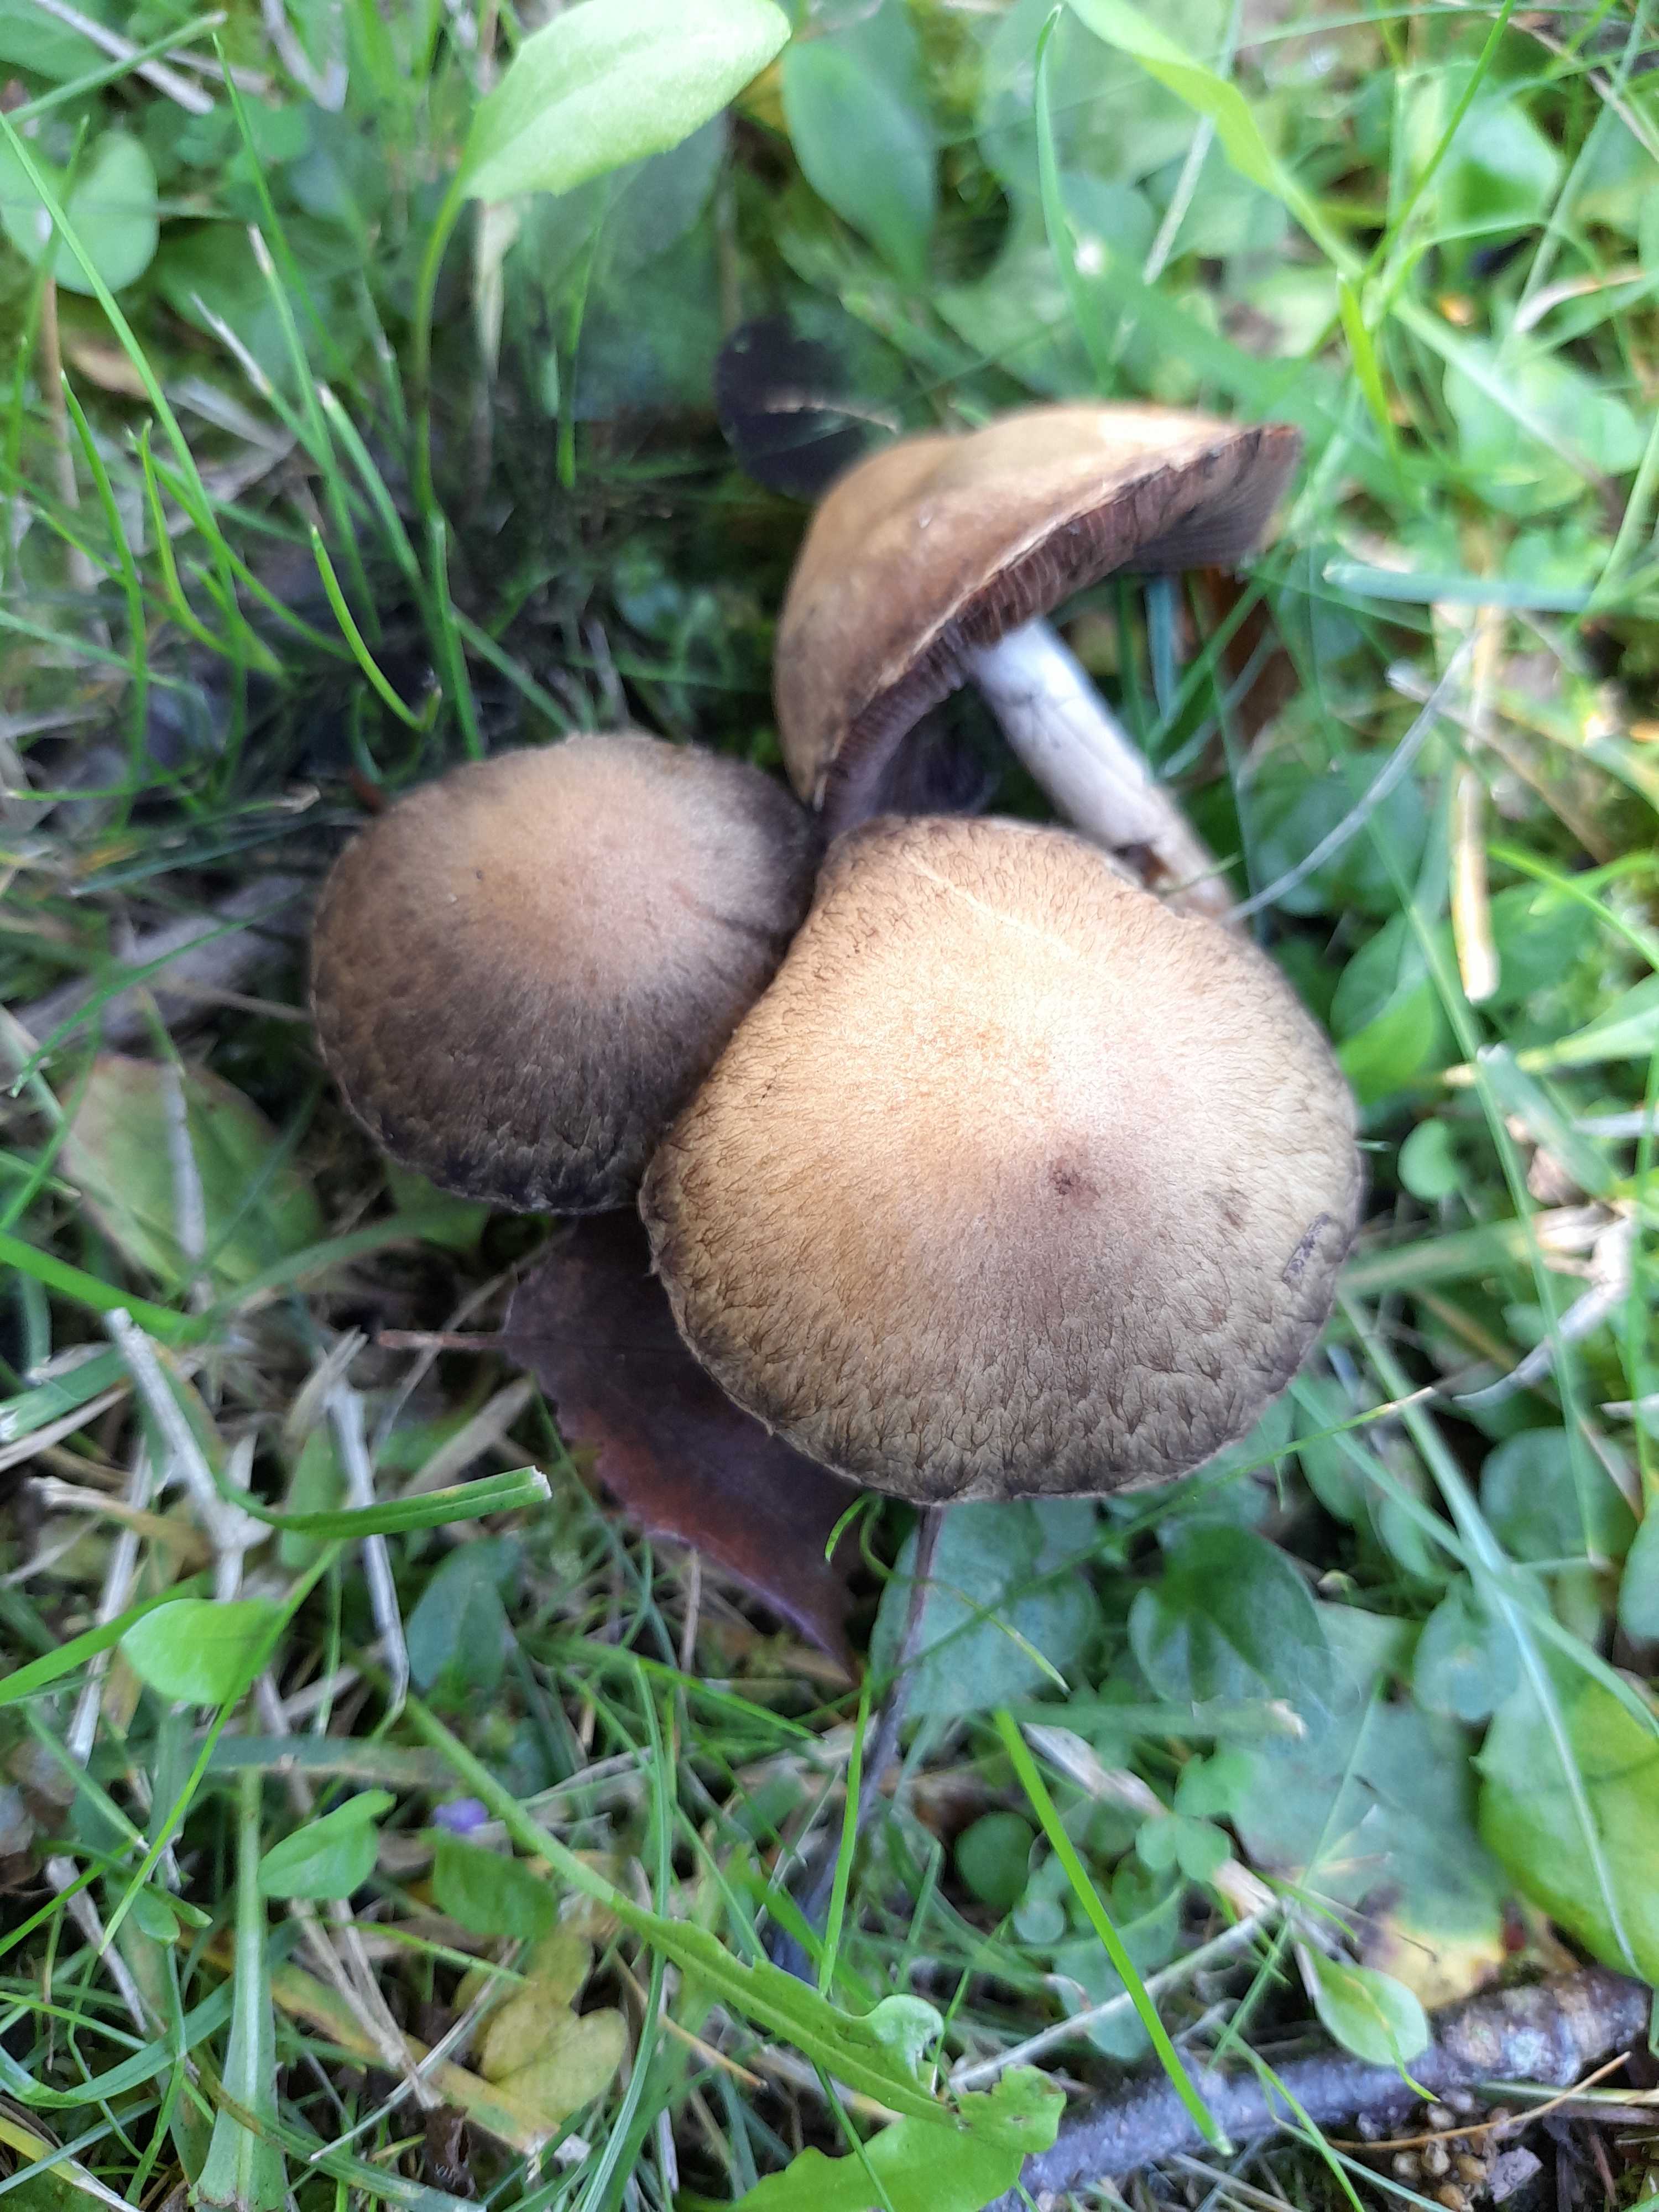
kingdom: Fungi
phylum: Basidiomycota
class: Agaricomycetes
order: Agaricales
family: Psathyrellaceae
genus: Lacrymaria
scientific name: Lacrymaria lacrymabunda
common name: grædende mørkhat
